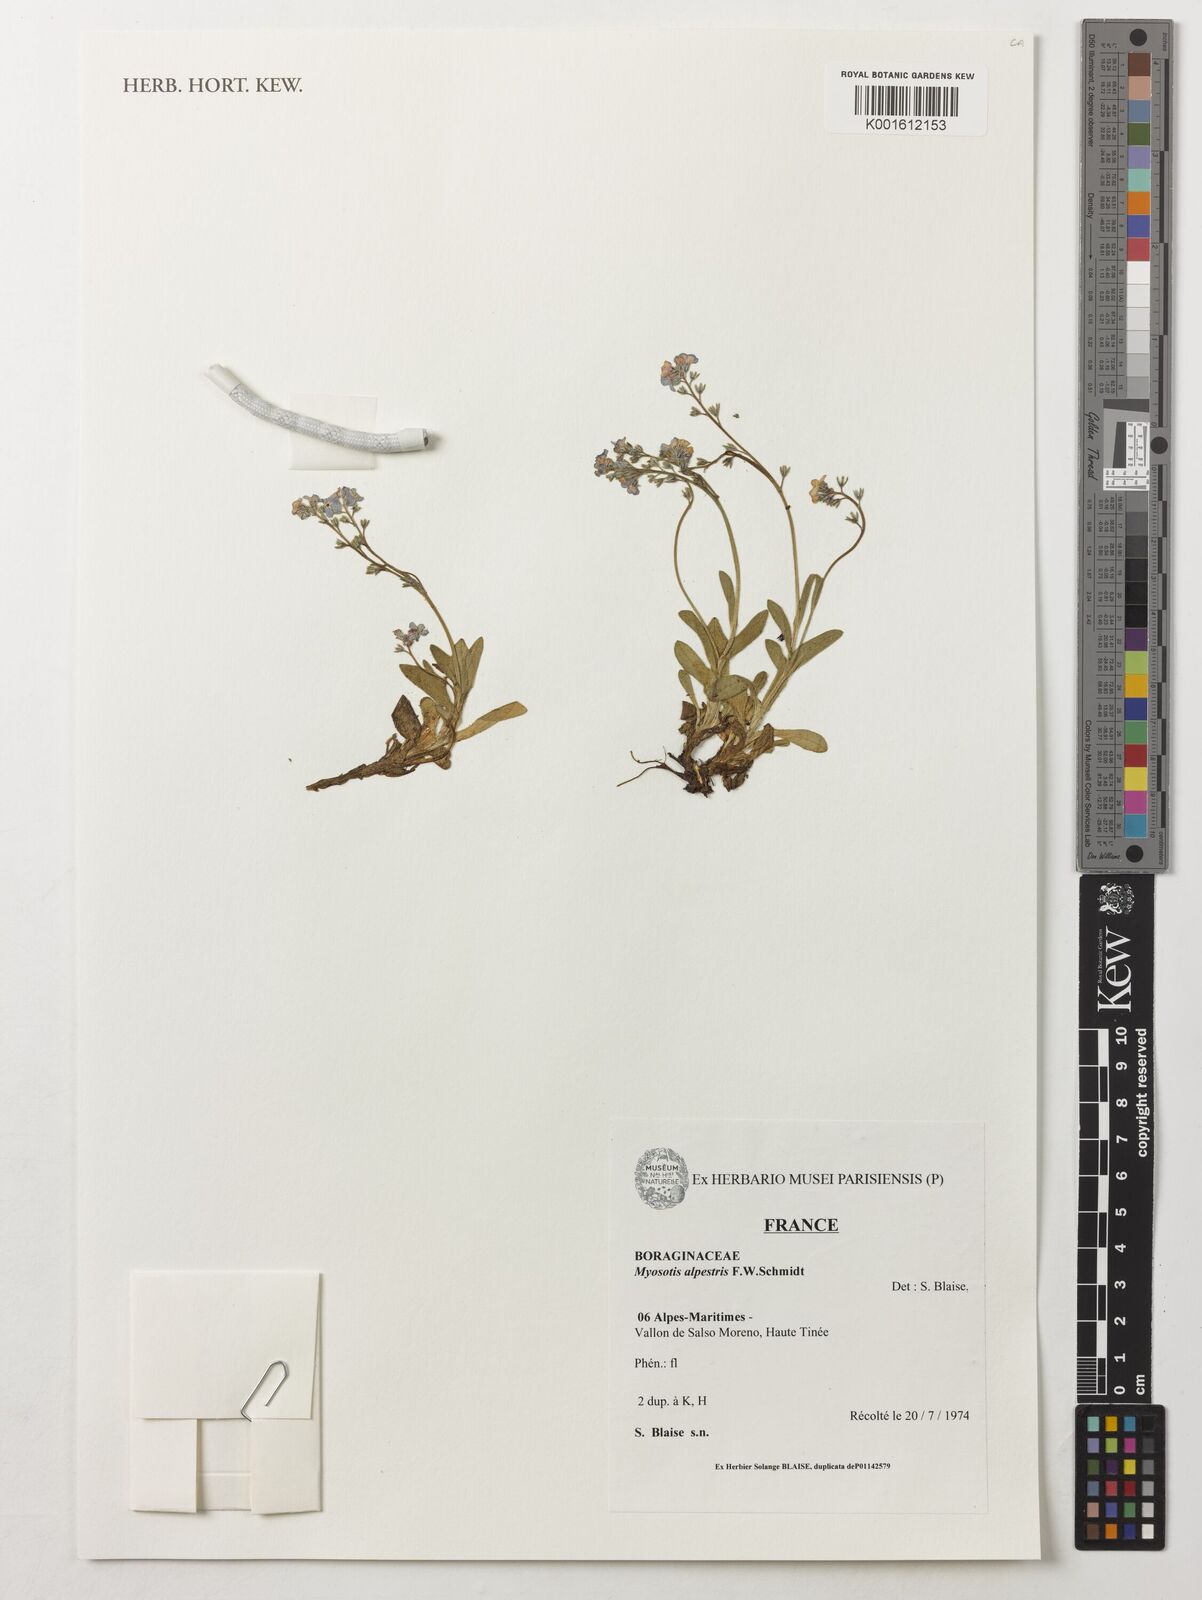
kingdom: Plantae
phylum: Tracheophyta
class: Magnoliopsida
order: Boraginales
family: Boraginaceae
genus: Myosotis
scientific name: Myosotis alpestris
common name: Alpine forget-me-not
